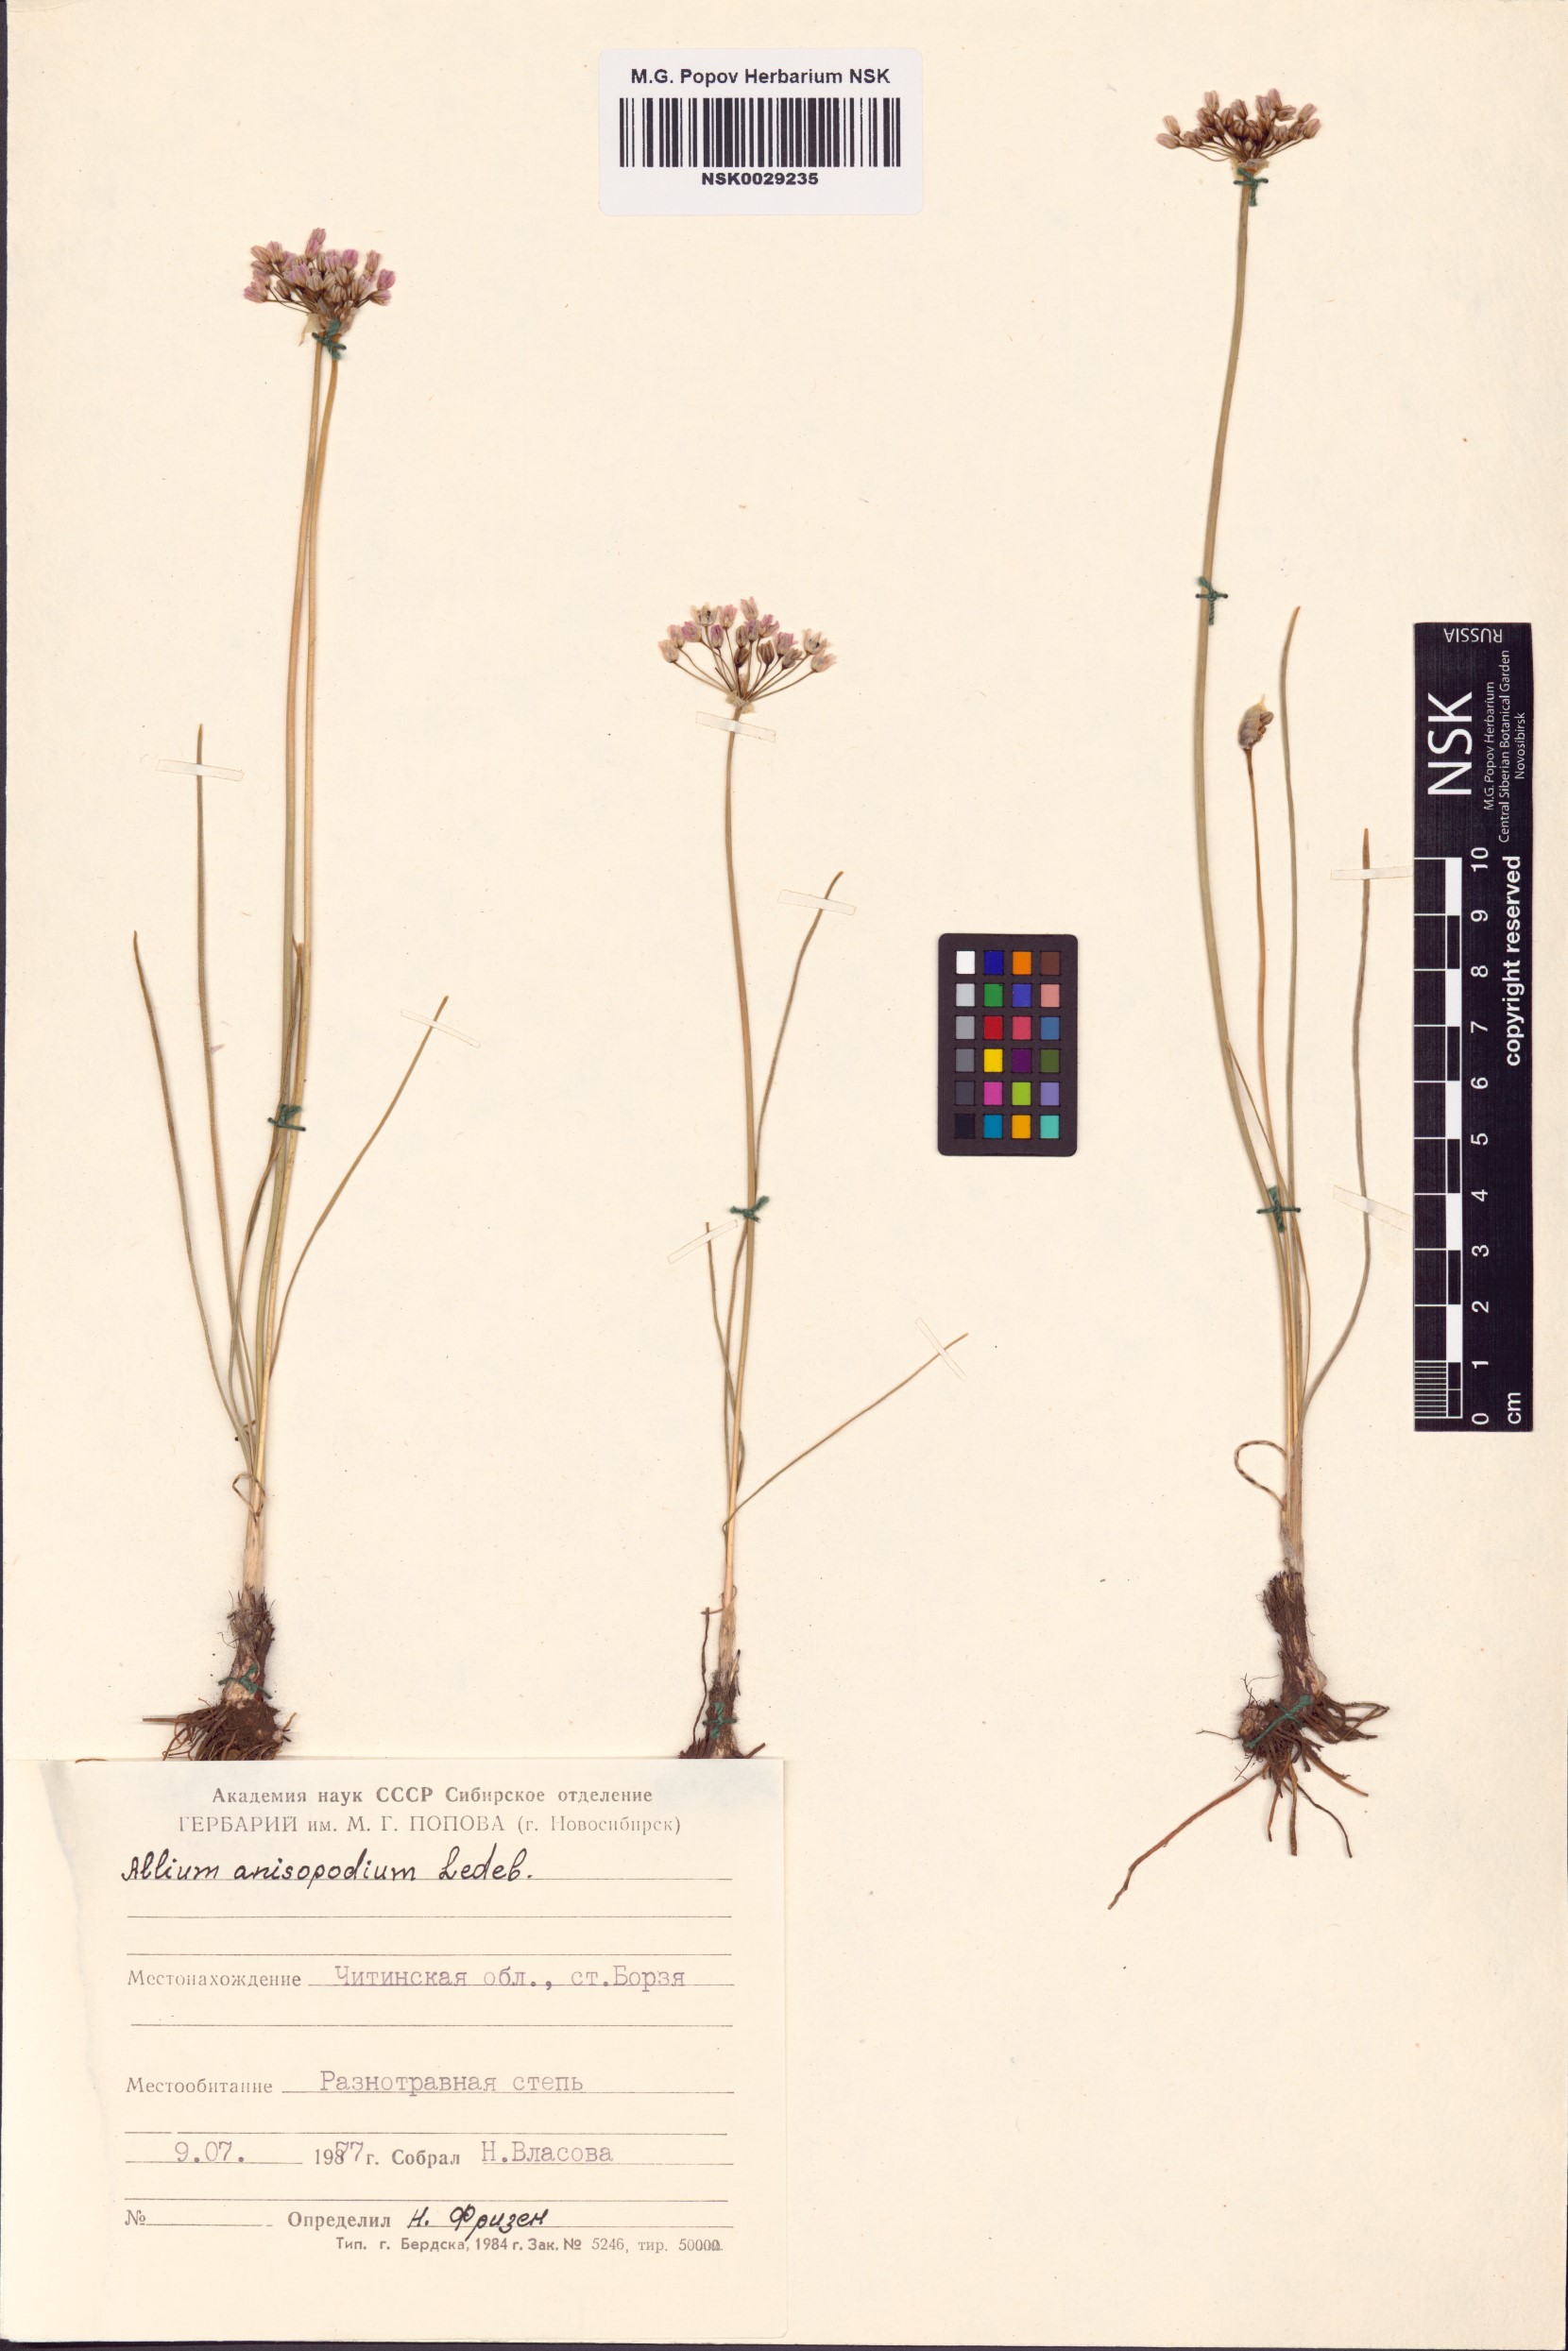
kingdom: Plantae
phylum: Tracheophyta
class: Liliopsida
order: Asparagales
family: Amaryllidaceae
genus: Allium
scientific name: Allium anisopodium
